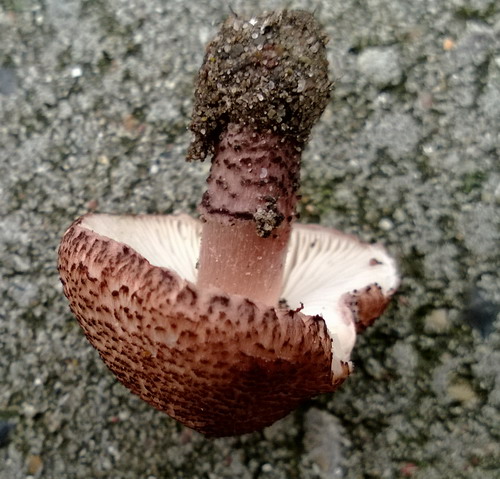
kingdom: Fungi
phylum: Basidiomycota
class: Agaricomycetes
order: Agaricales
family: Agaricaceae
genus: Lepiota
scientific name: Lepiota brunneoincarnata
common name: brunrød parasolhat
